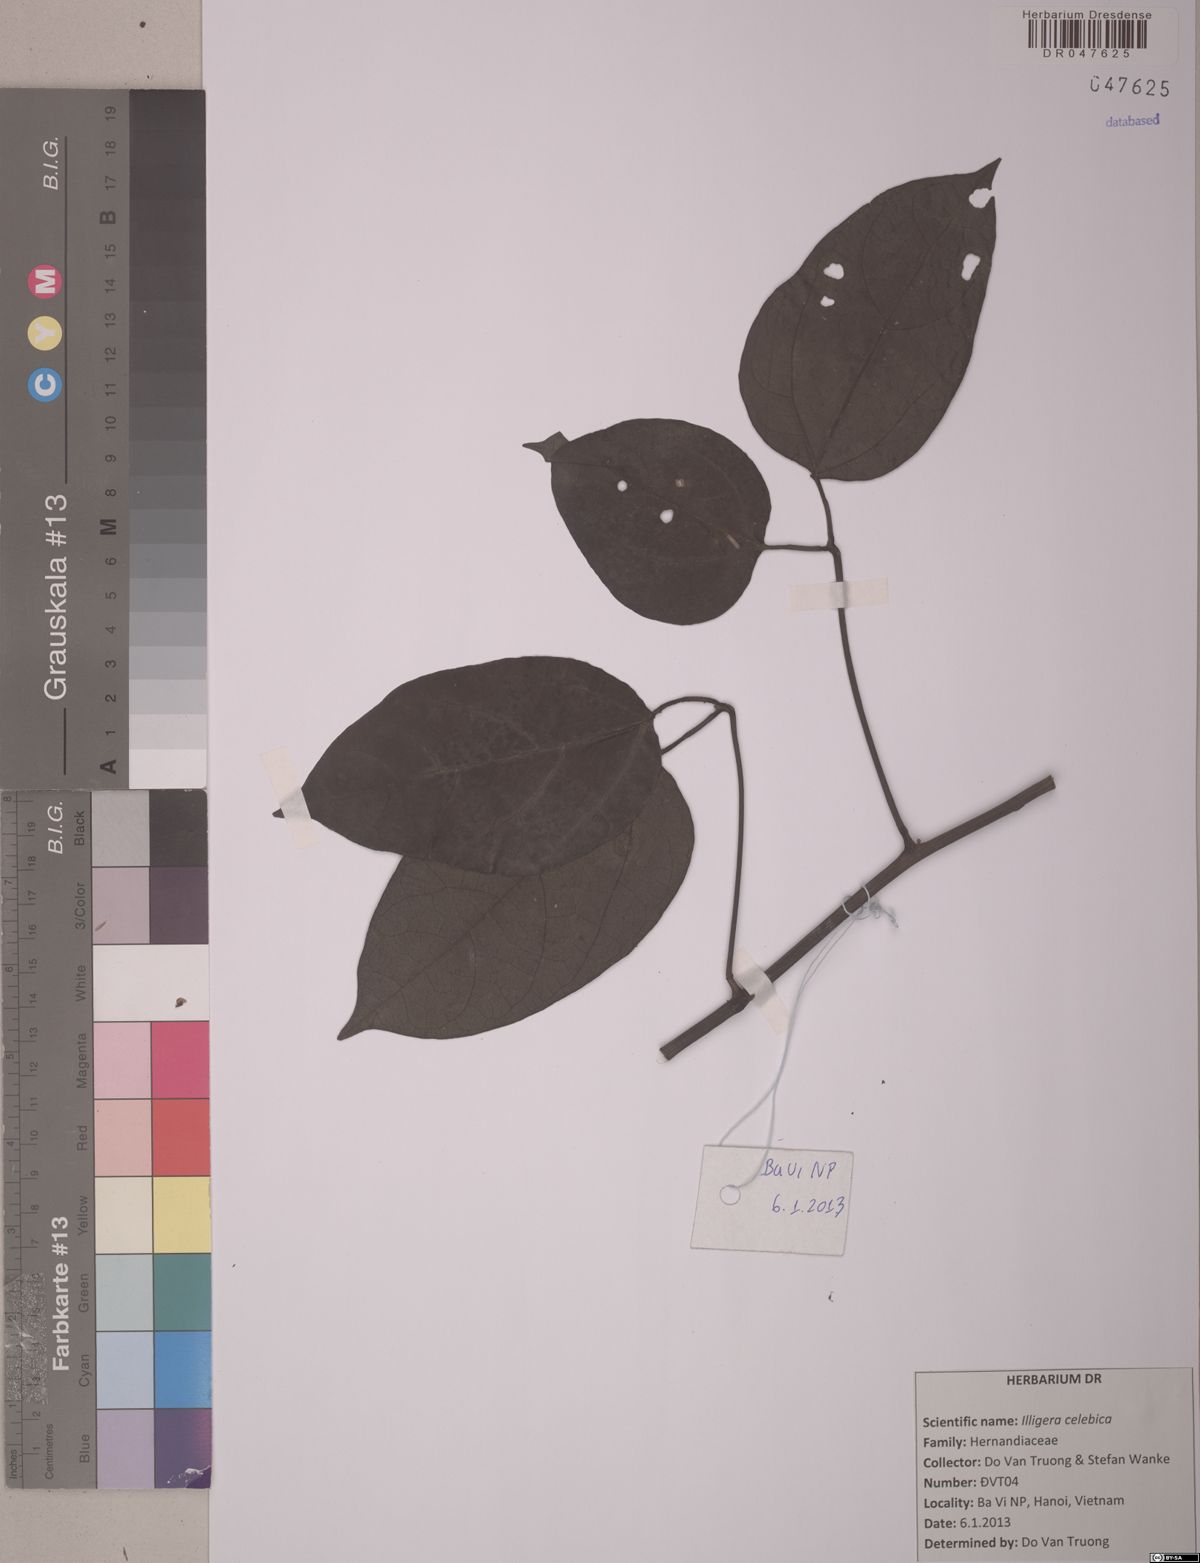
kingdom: Plantae
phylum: Tracheophyta
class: Magnoliopsida
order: Laurales
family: Hernandiaceae
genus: Illigera
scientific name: Illigera celebica
